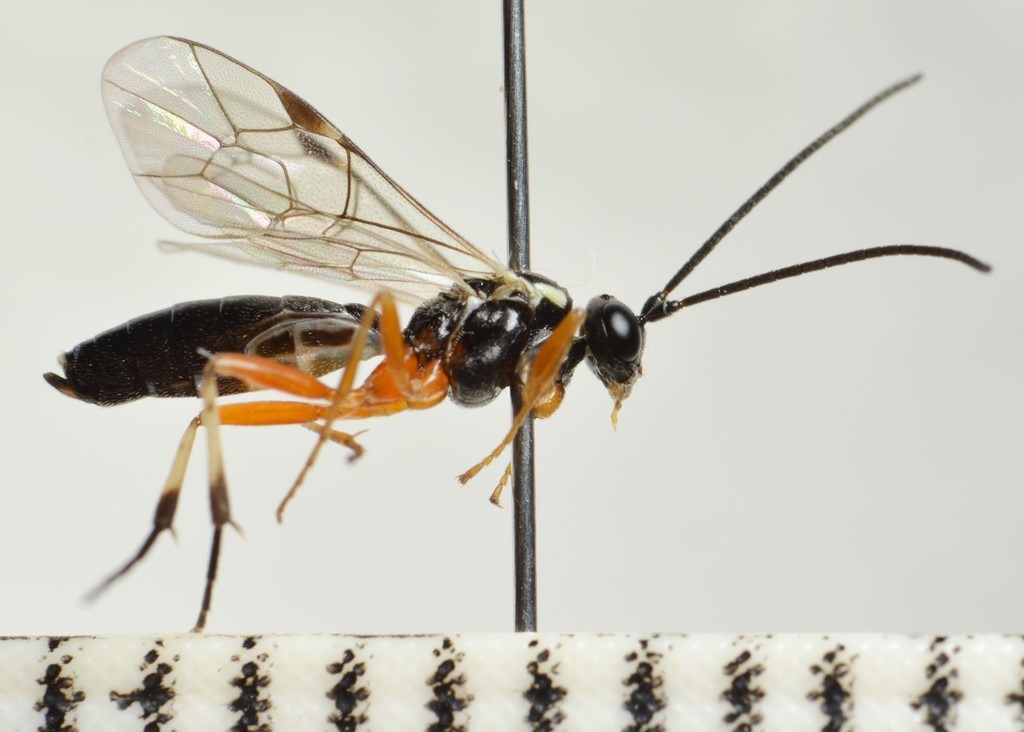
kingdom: Animalia
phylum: Arthropoda
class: Insecta
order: Hymenoptera
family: Ichneumonidae
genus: Syrphoctonus
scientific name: Syrphoctonus dimidiatus
